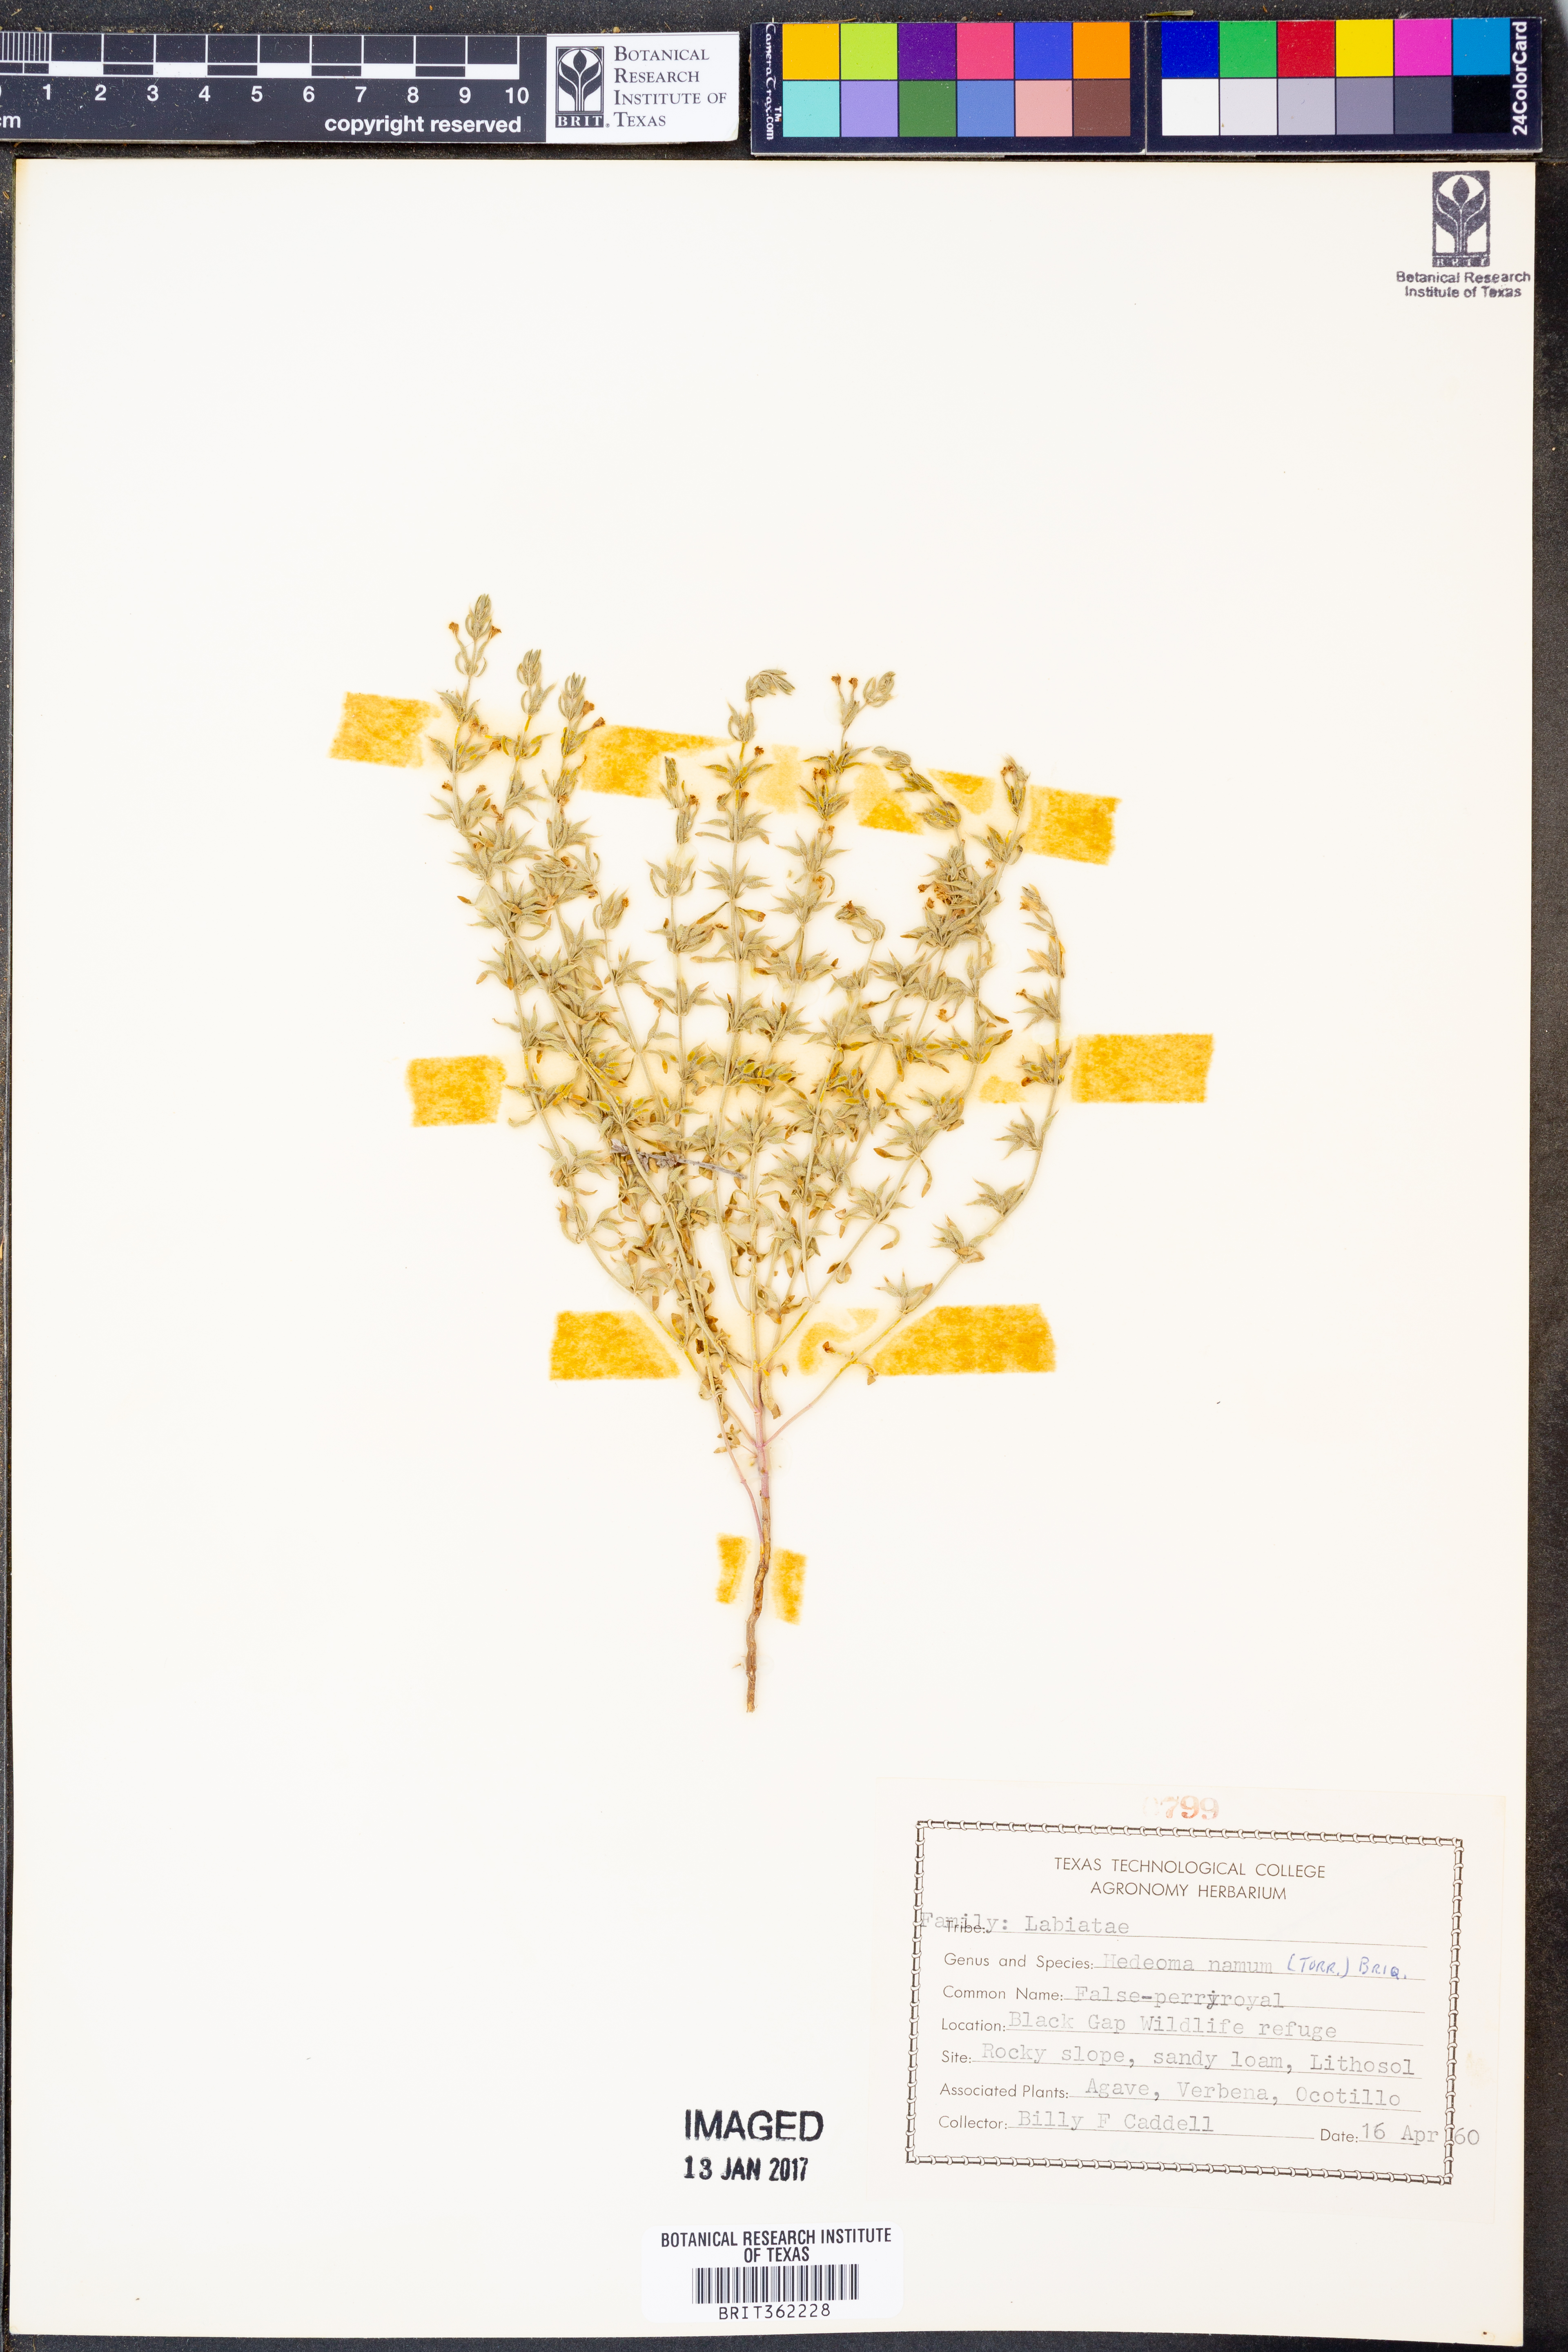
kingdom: Plantae
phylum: Tracheophyta
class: Magnoliopsida
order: Lamiales
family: Lamiaceae
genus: Hedeoma
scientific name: Hedeoma nana
